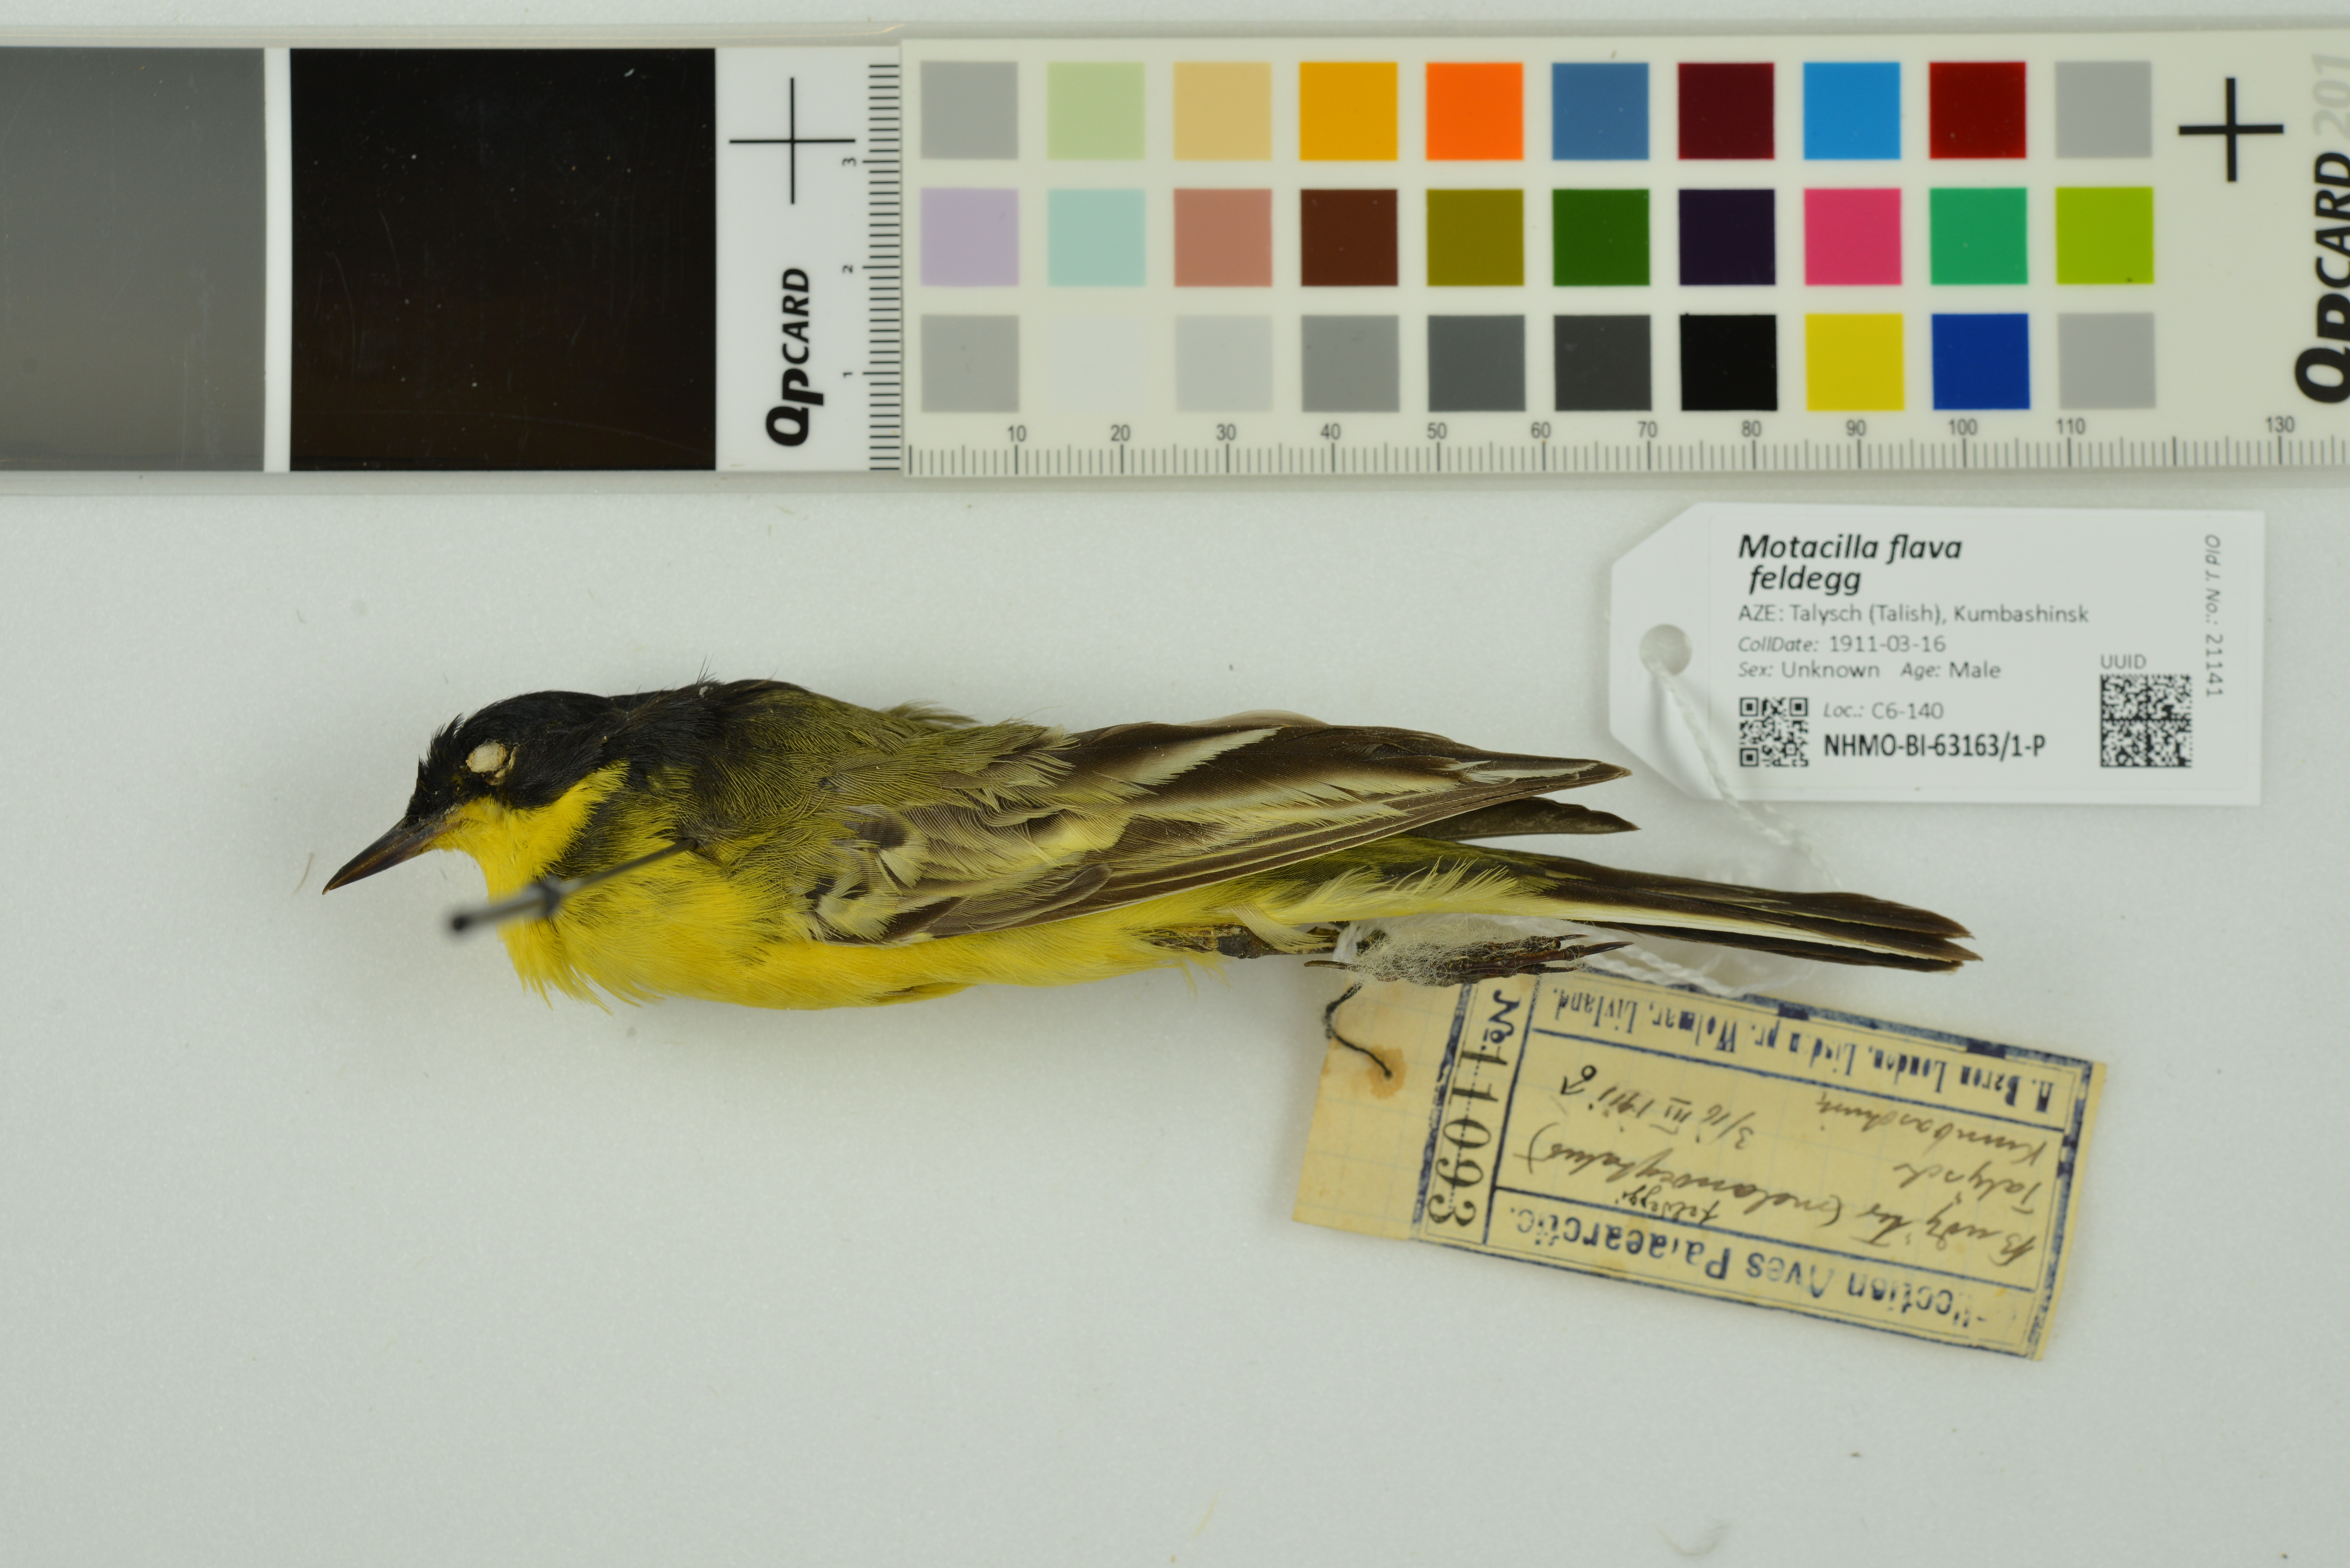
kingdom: Animalia
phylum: Chordata
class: Aves
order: Passeriformes
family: Motacillidae
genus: Motacilla
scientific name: Motacilla flava
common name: Western yellow wagtail
